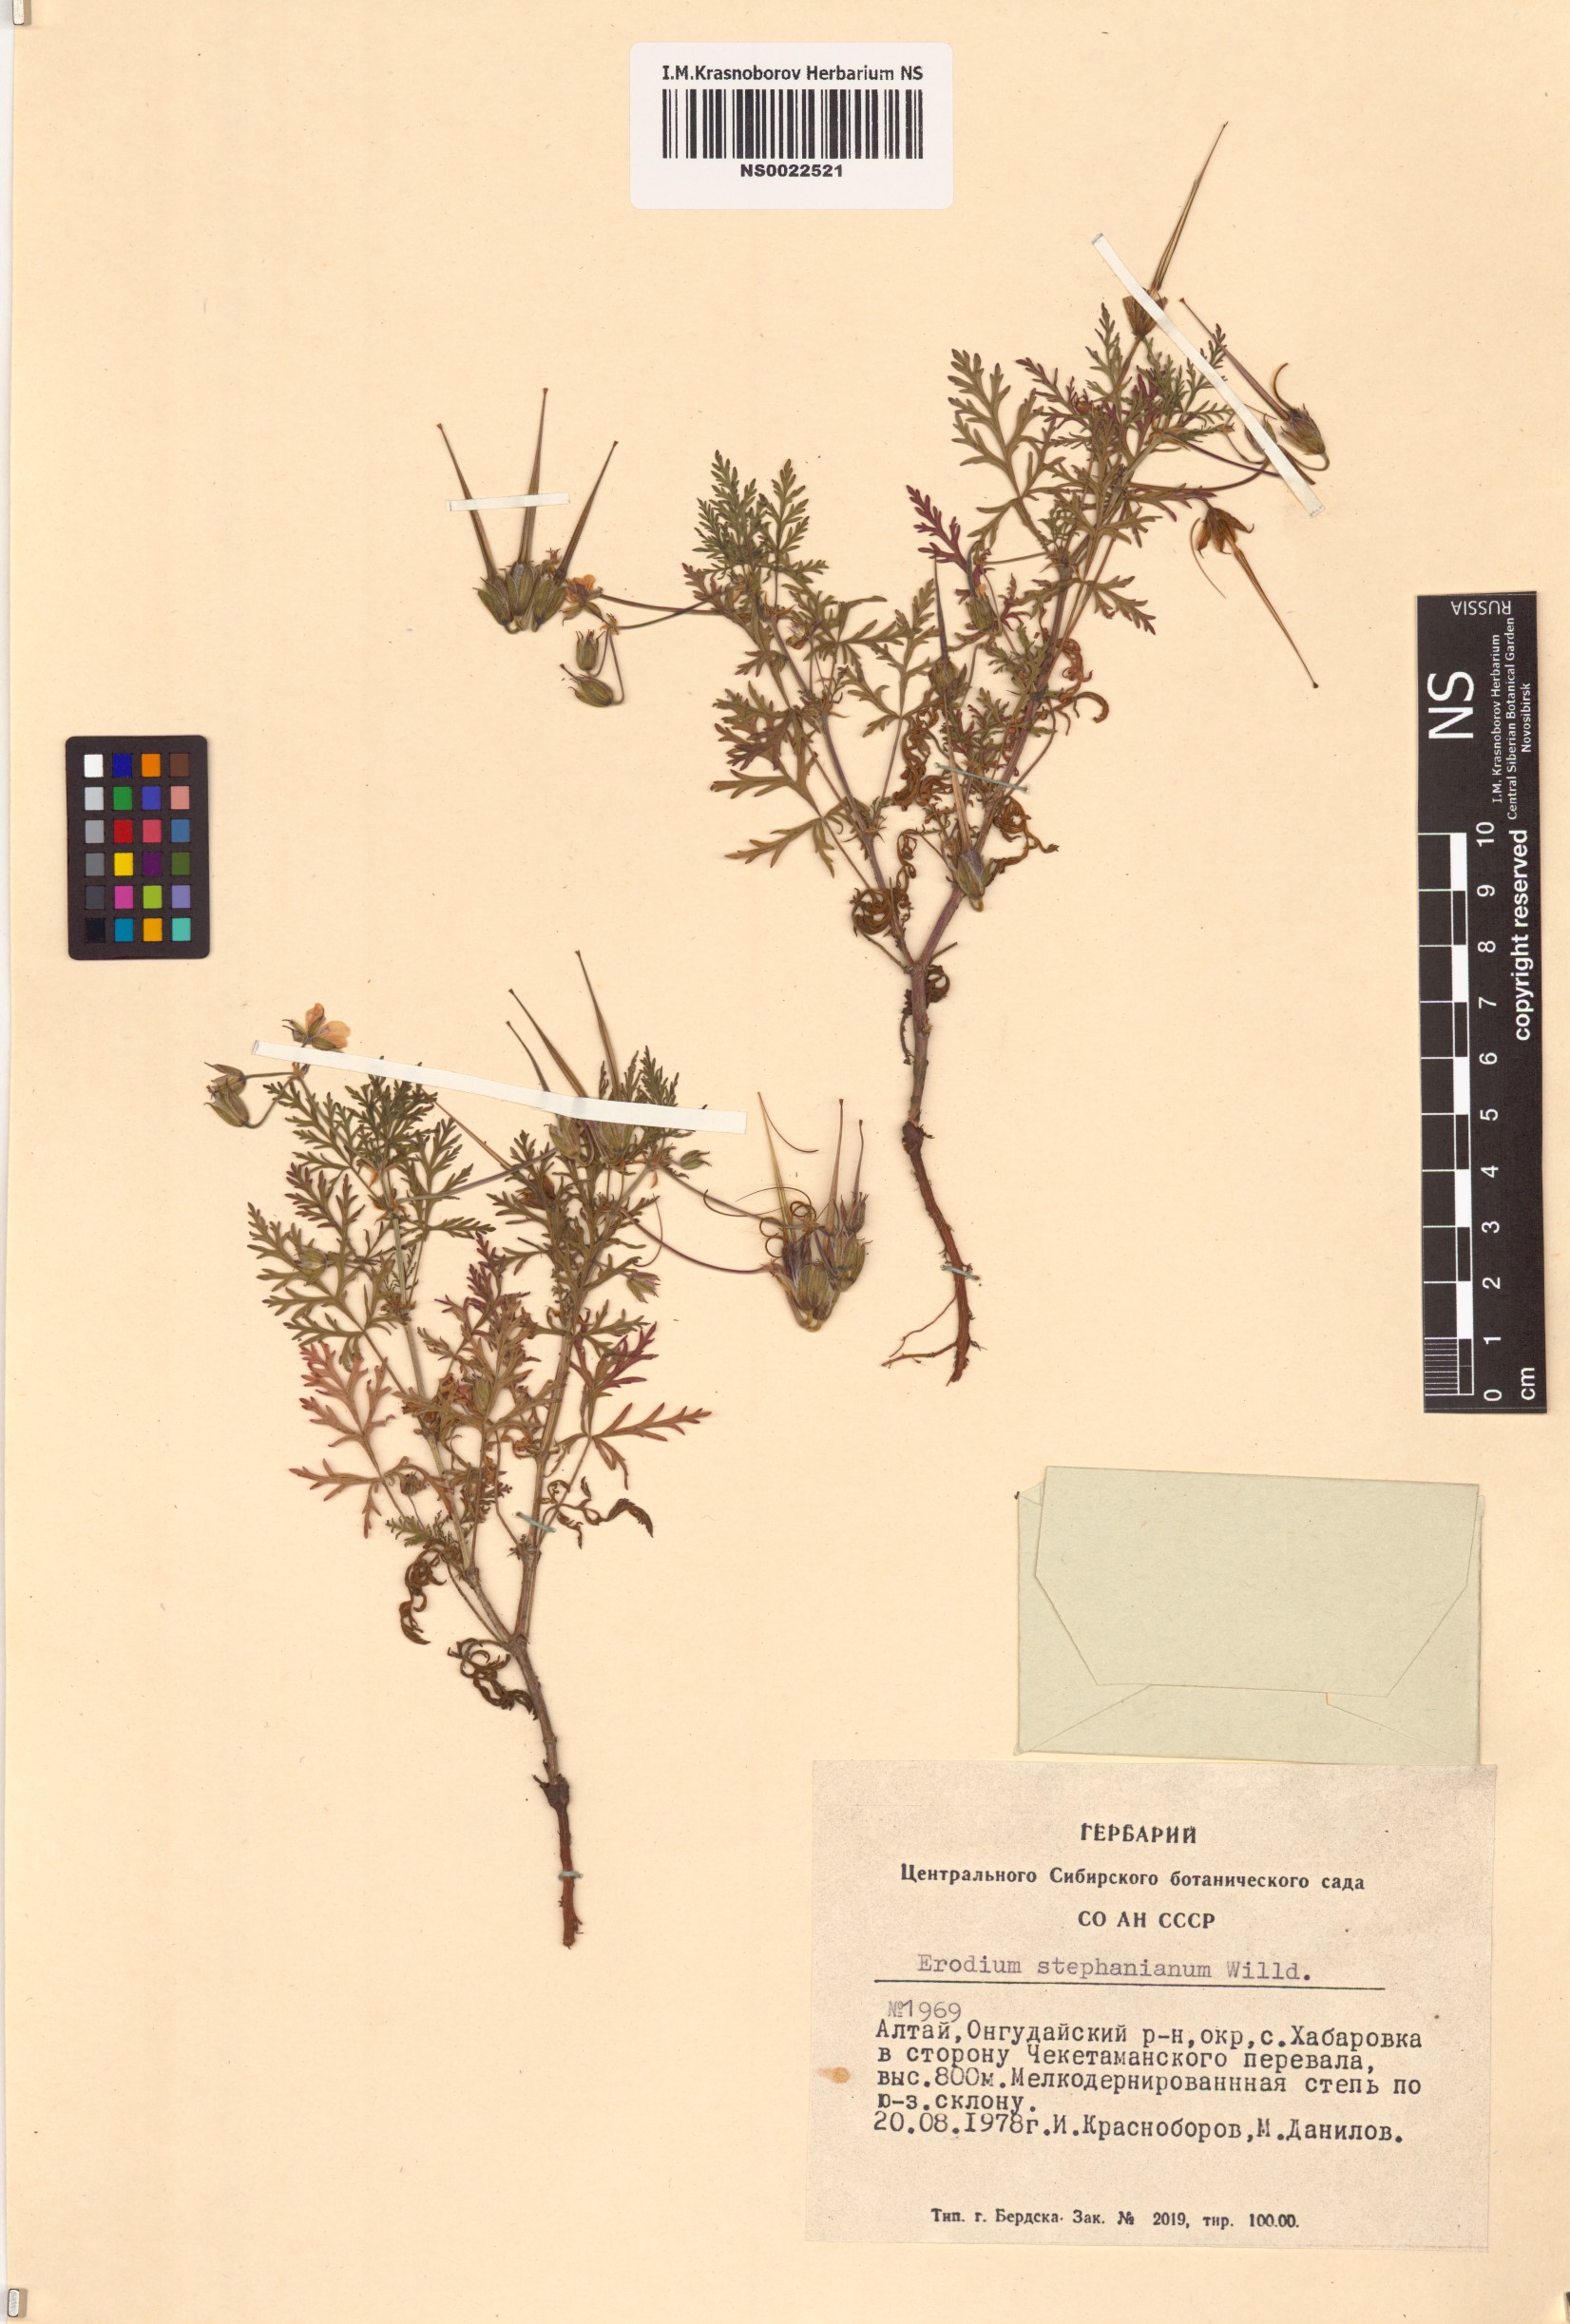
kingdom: Plantae
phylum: Tracheophyta
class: Magnoliopsida
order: Geraniales
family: Geraniaceae
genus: Erodium
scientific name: Erodium stephanianum
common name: Stephen's stork's bill
